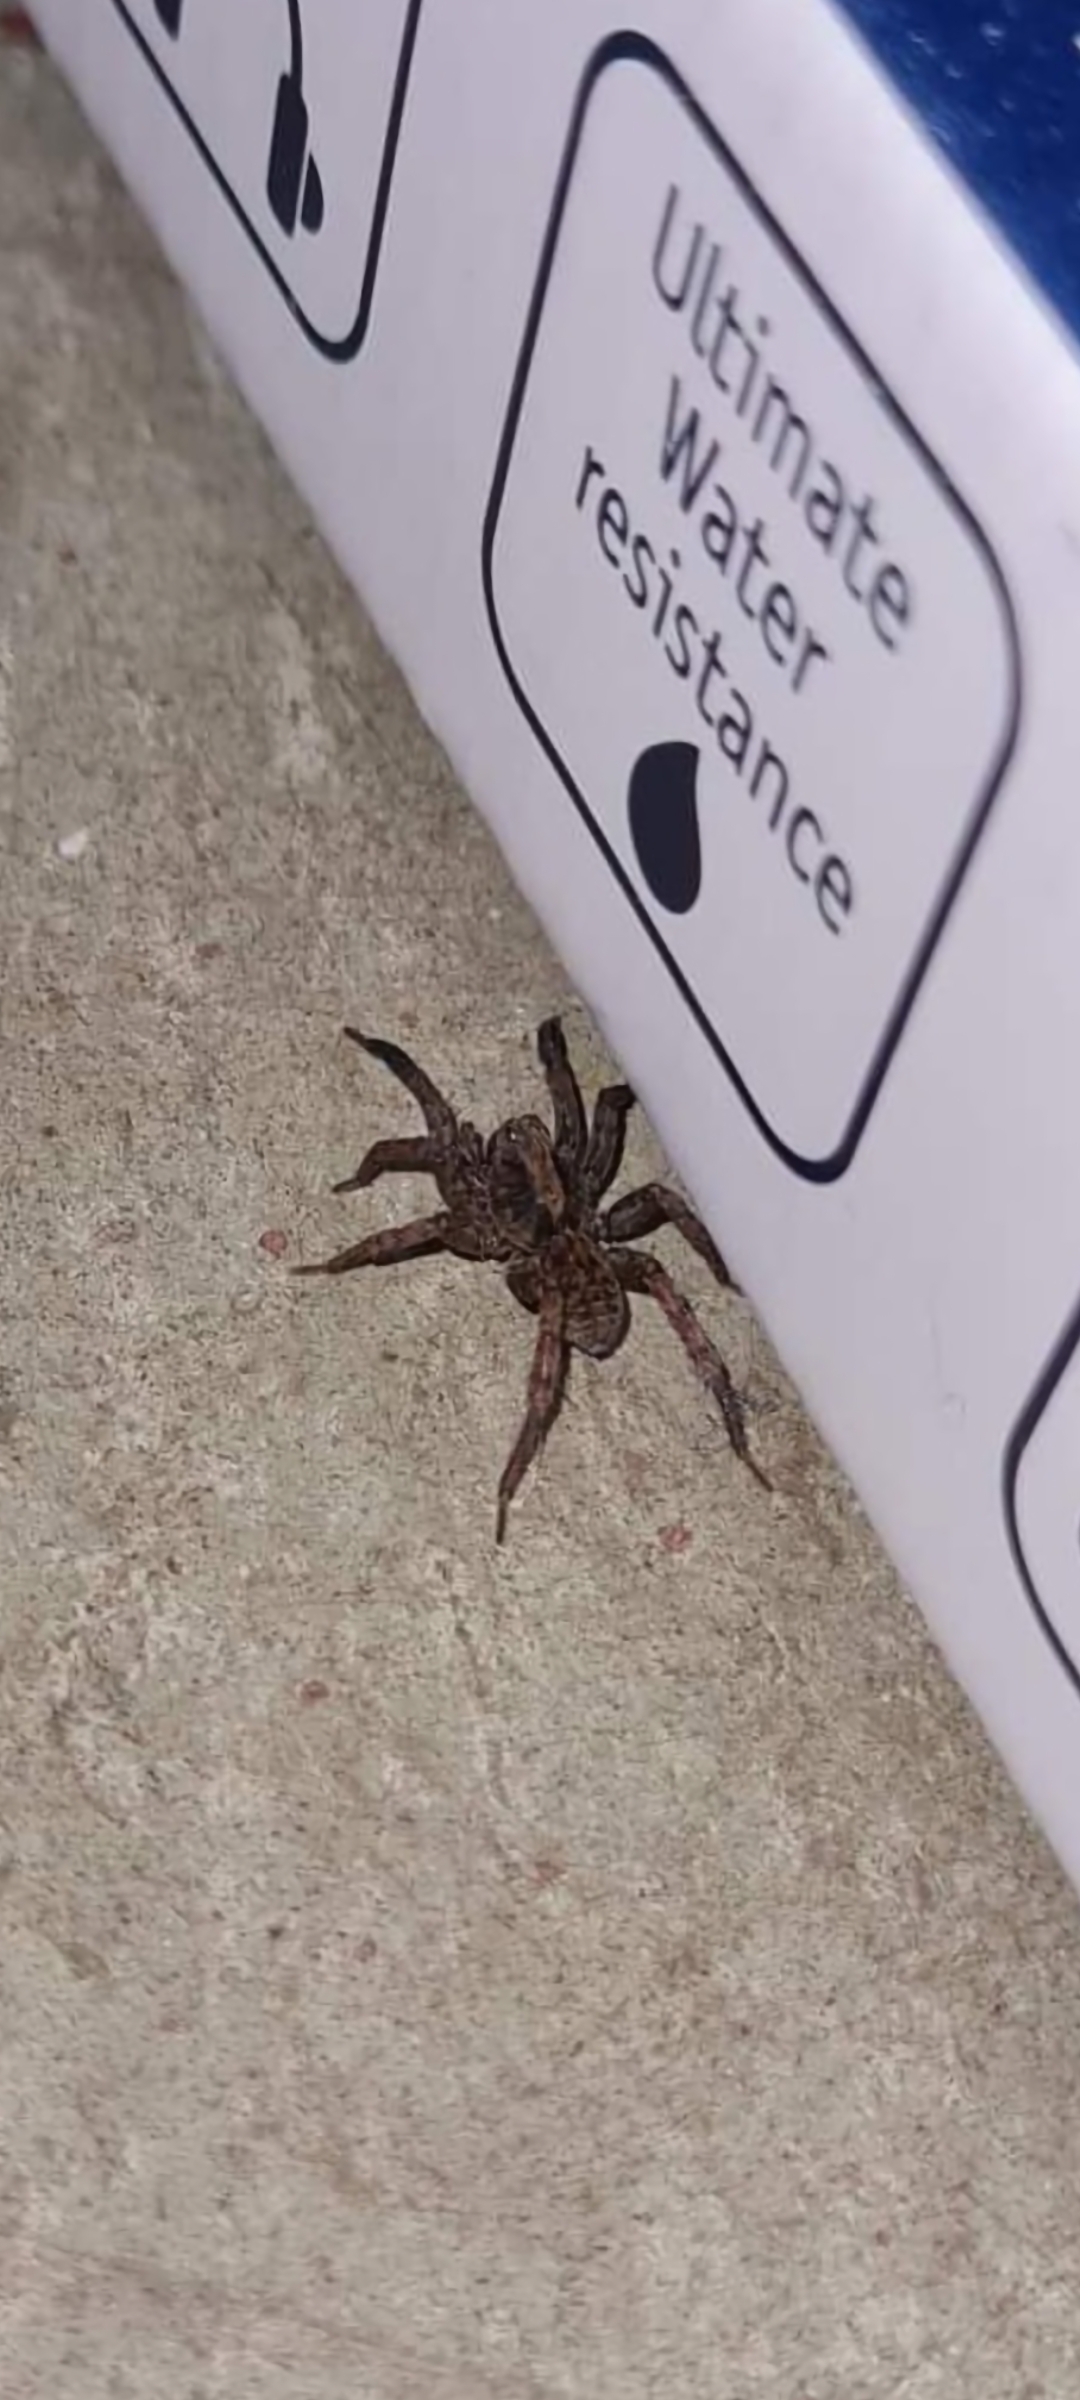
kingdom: Animalia
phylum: Arthropoda
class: Arachnida
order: Araneae
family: Lycosidae
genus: Trochosa
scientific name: Trochosa terricola
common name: Almindelig bjørneedderkop
